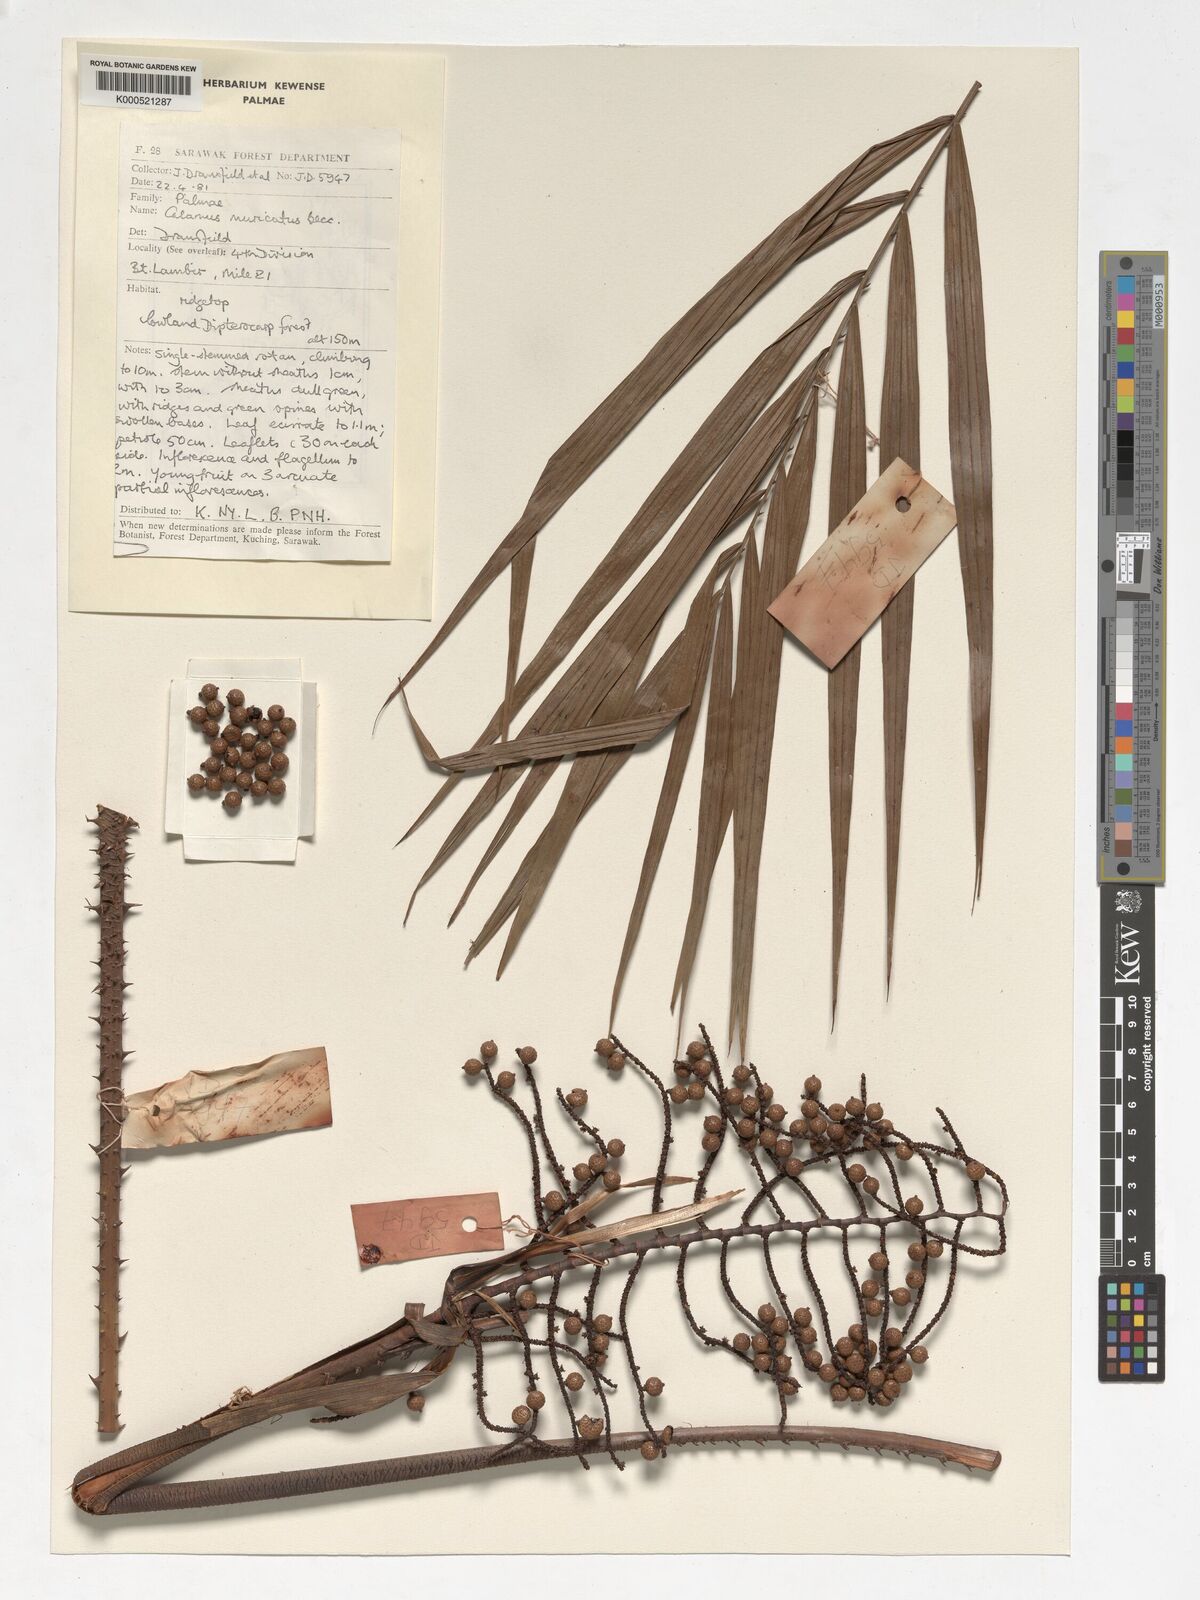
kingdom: Plantae
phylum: Tracheophyta
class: Liliopsida
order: Arecales
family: Arecaceae
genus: Calamus
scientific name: Calamus muricatus
